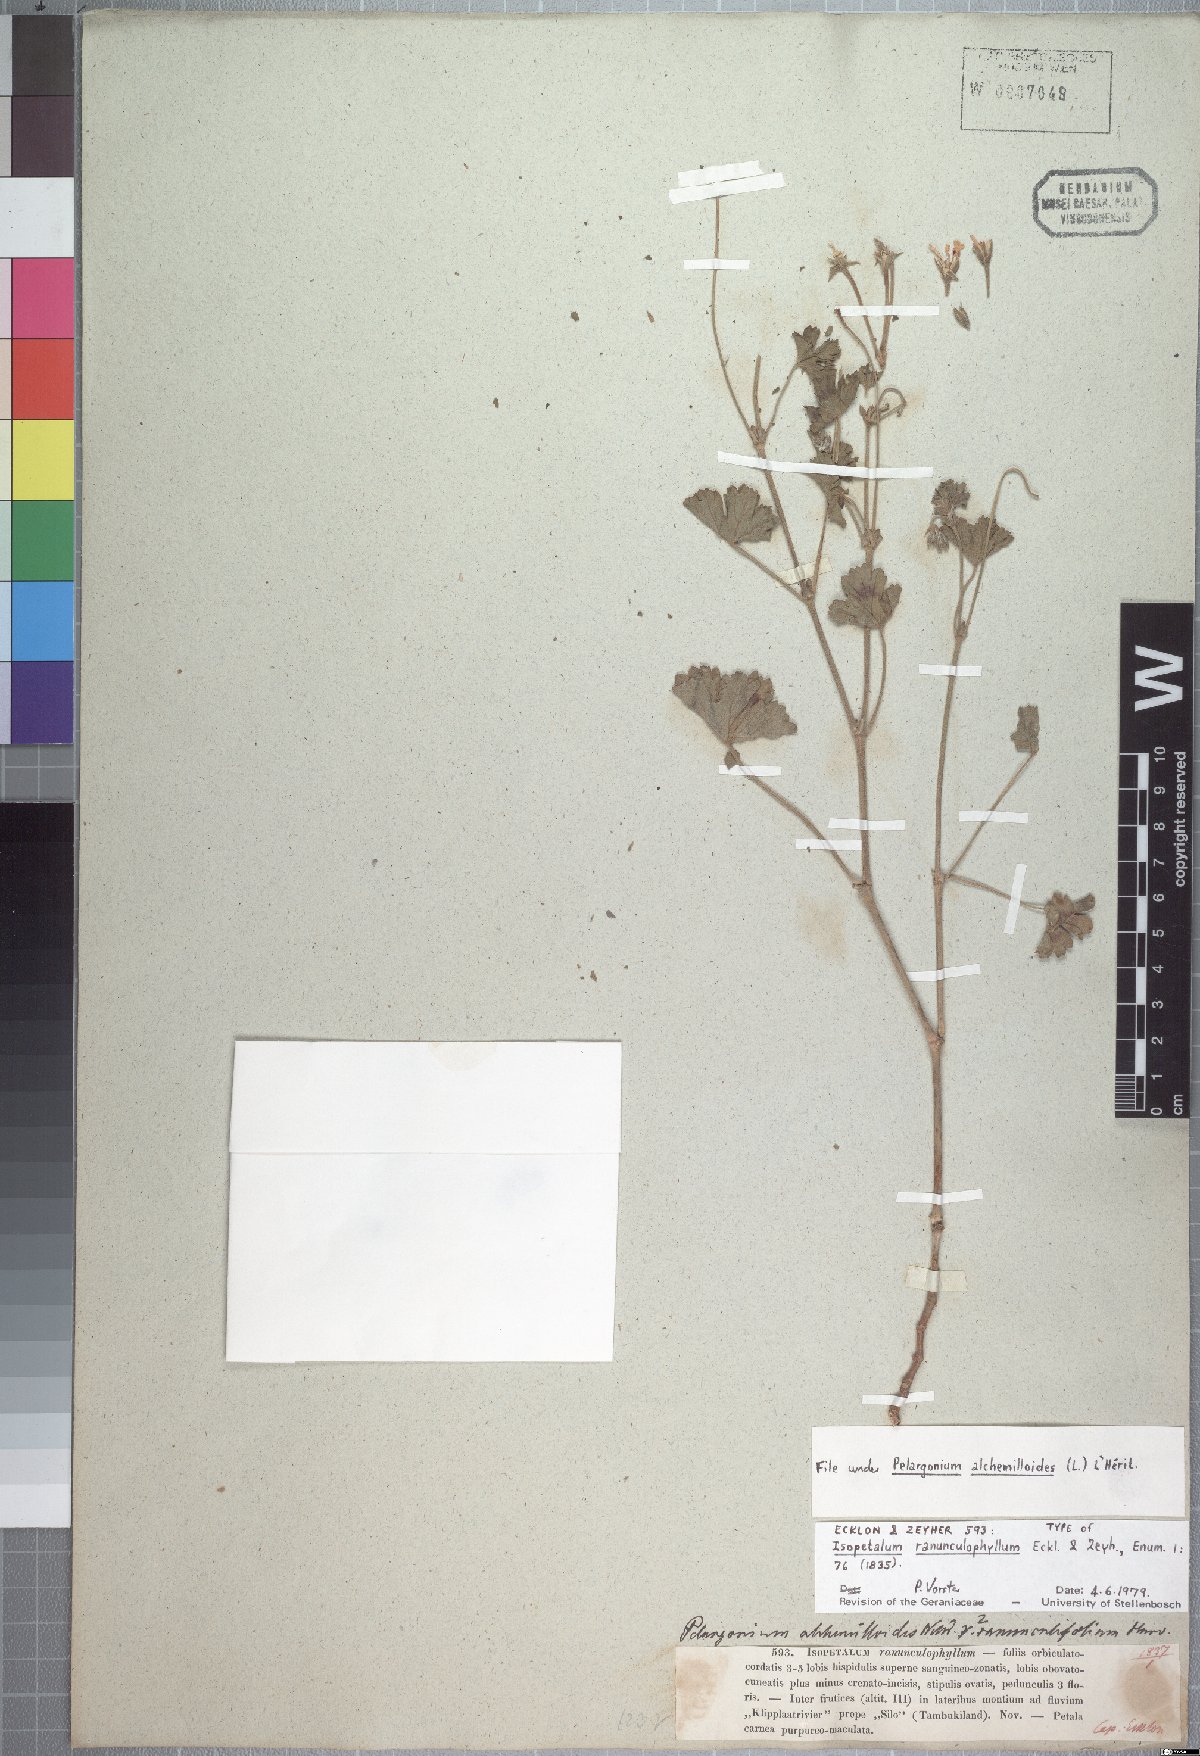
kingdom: Plantae
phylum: Tracheophyta
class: Magnoliopsida
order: Geraniales
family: Geraniaceae
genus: Pelargonium
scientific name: Pelargonium ranunculophyllum
